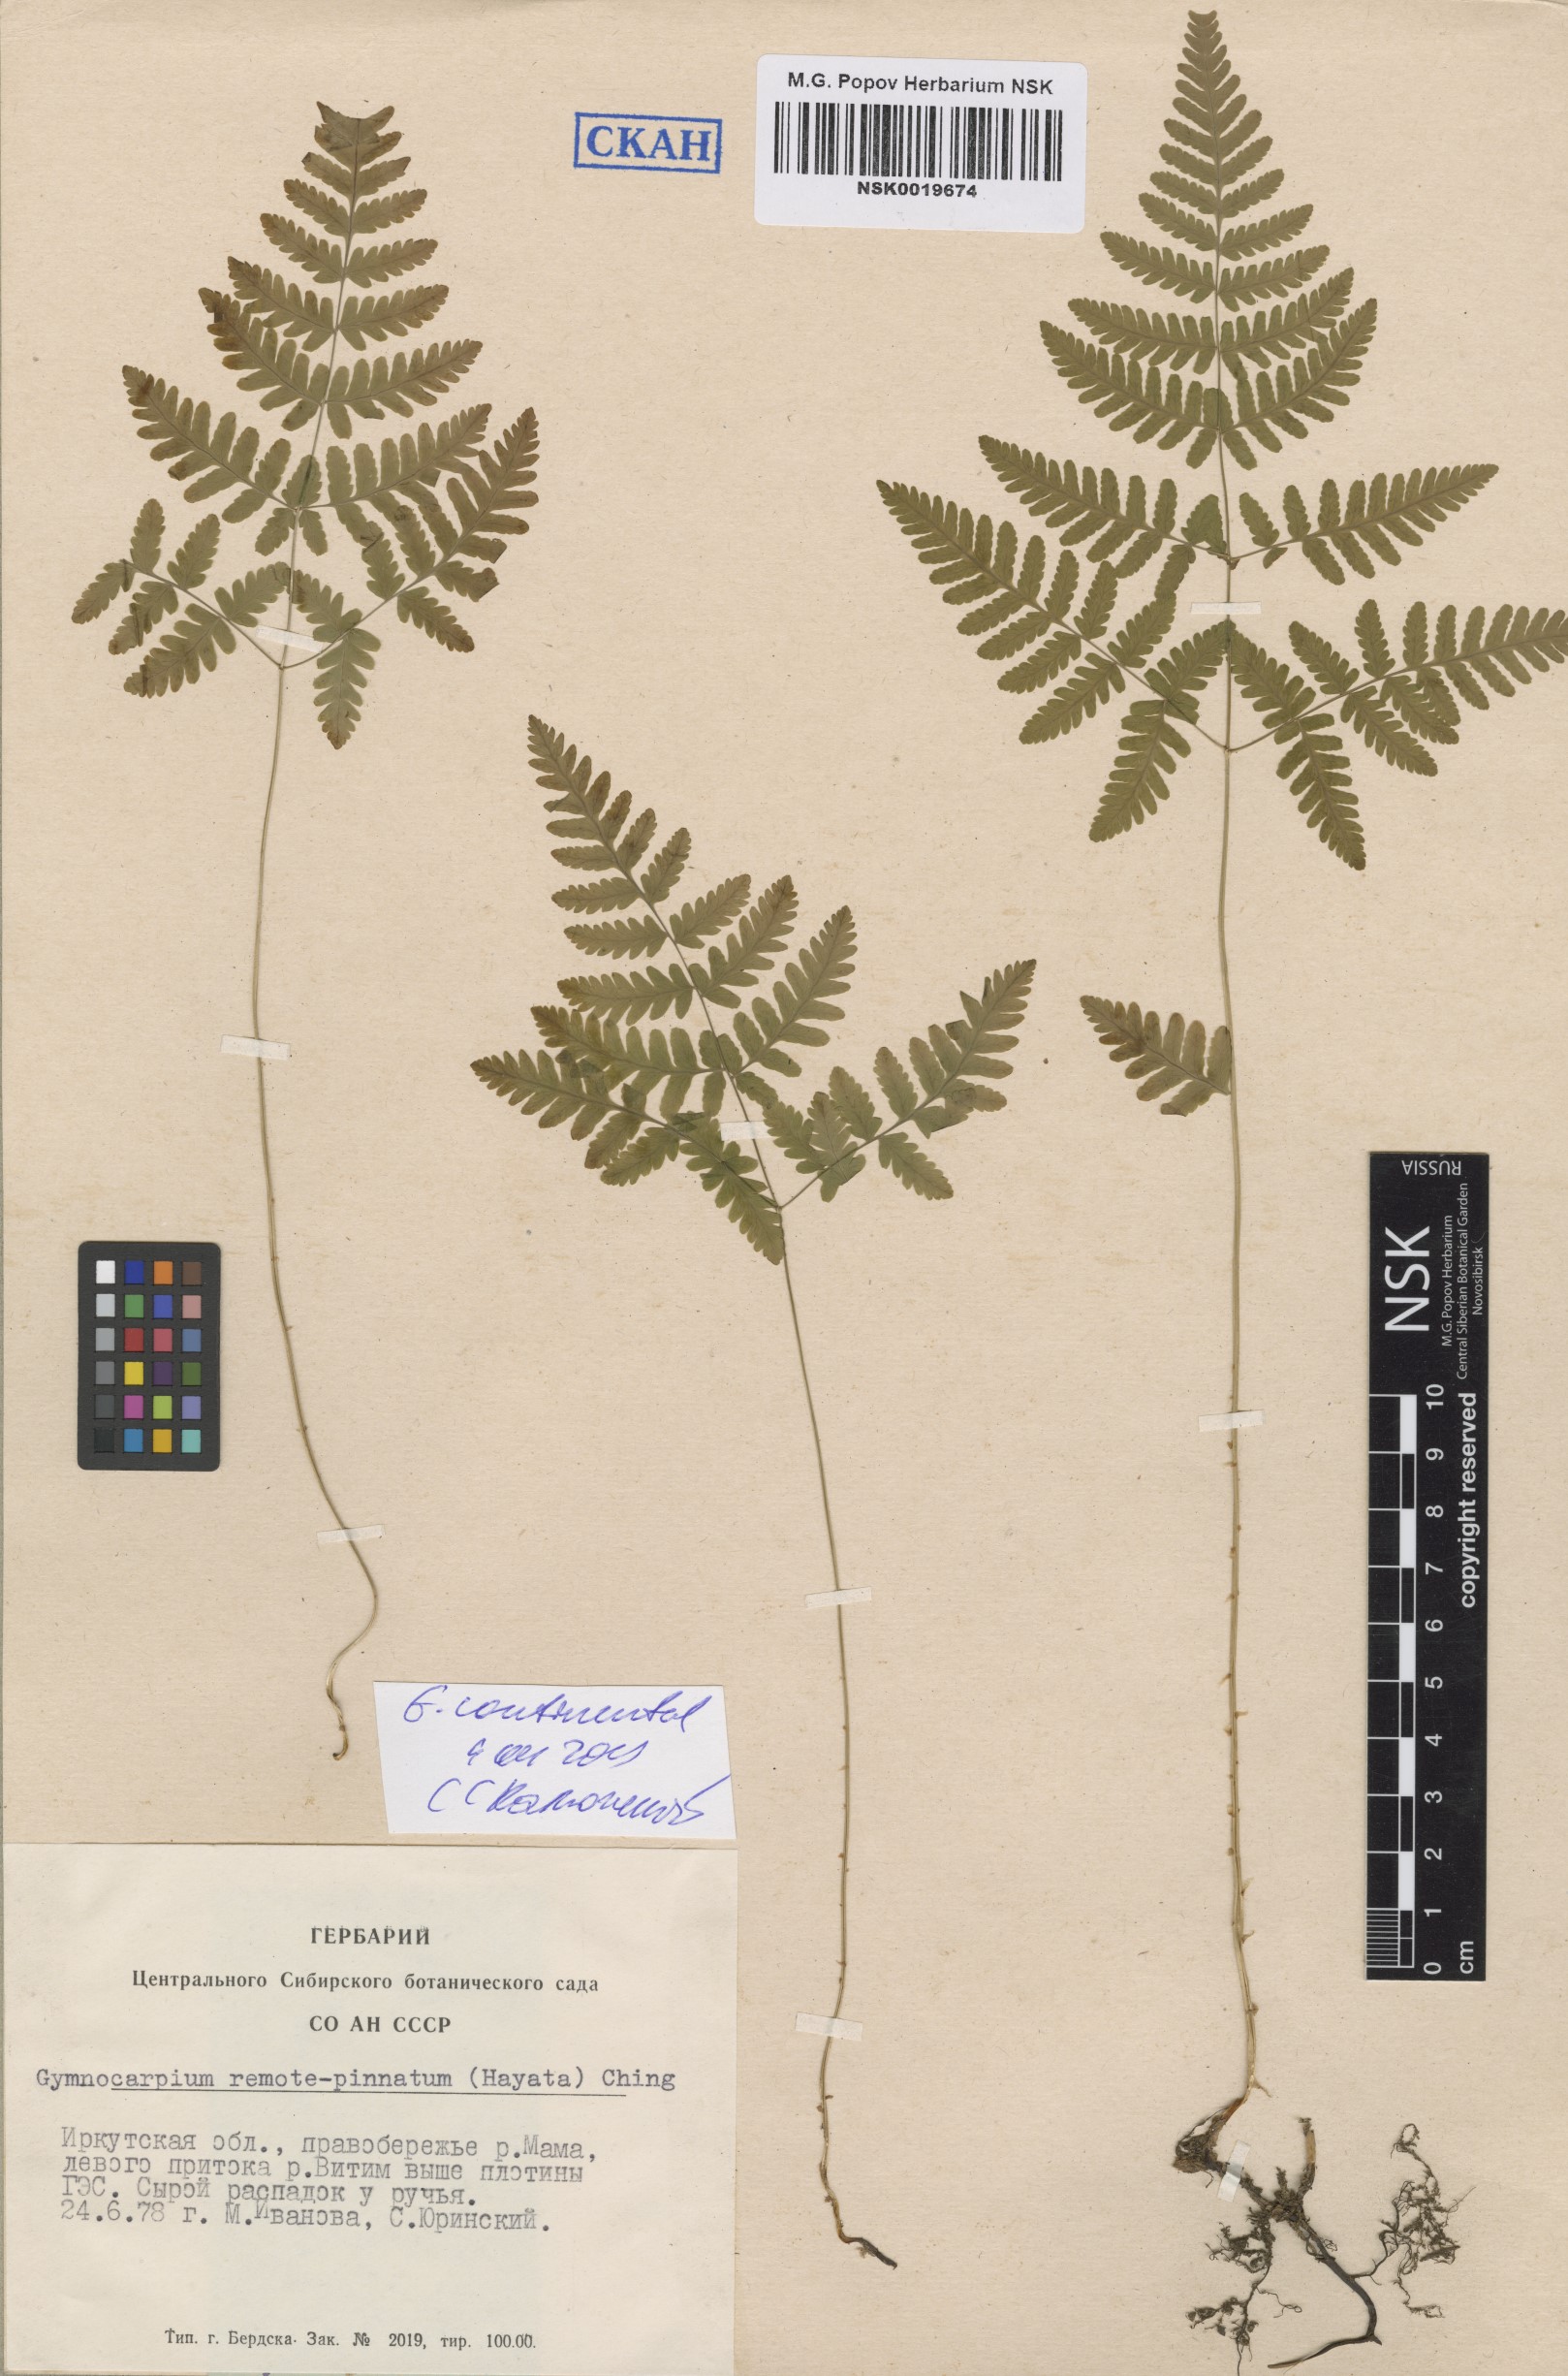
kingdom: Plantae
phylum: Tracheophyta
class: Polypodiopsida
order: Polypodiales
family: Cystopteridaceae
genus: Gymnocarpium
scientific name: Gymnocarpium continentale
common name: Asian oak fern
